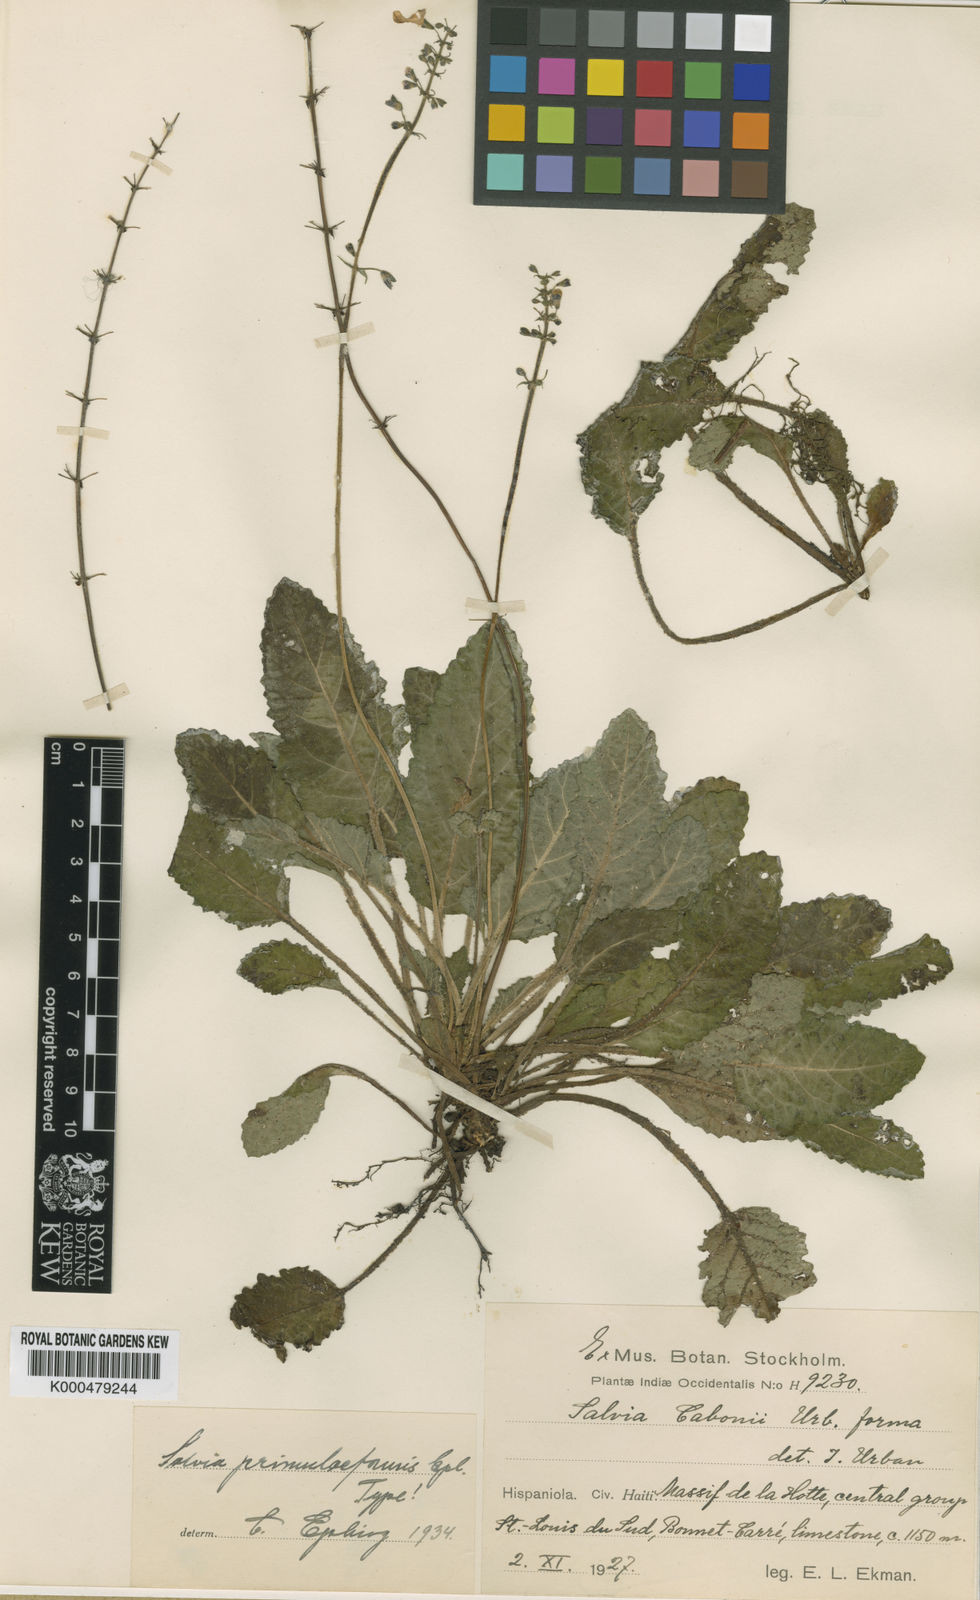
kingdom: Plantae
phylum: Tracheophyta
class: Magnoliopsida
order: Lamiales
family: Lamiaceae
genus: Salvia
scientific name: Salvia primuliformis
